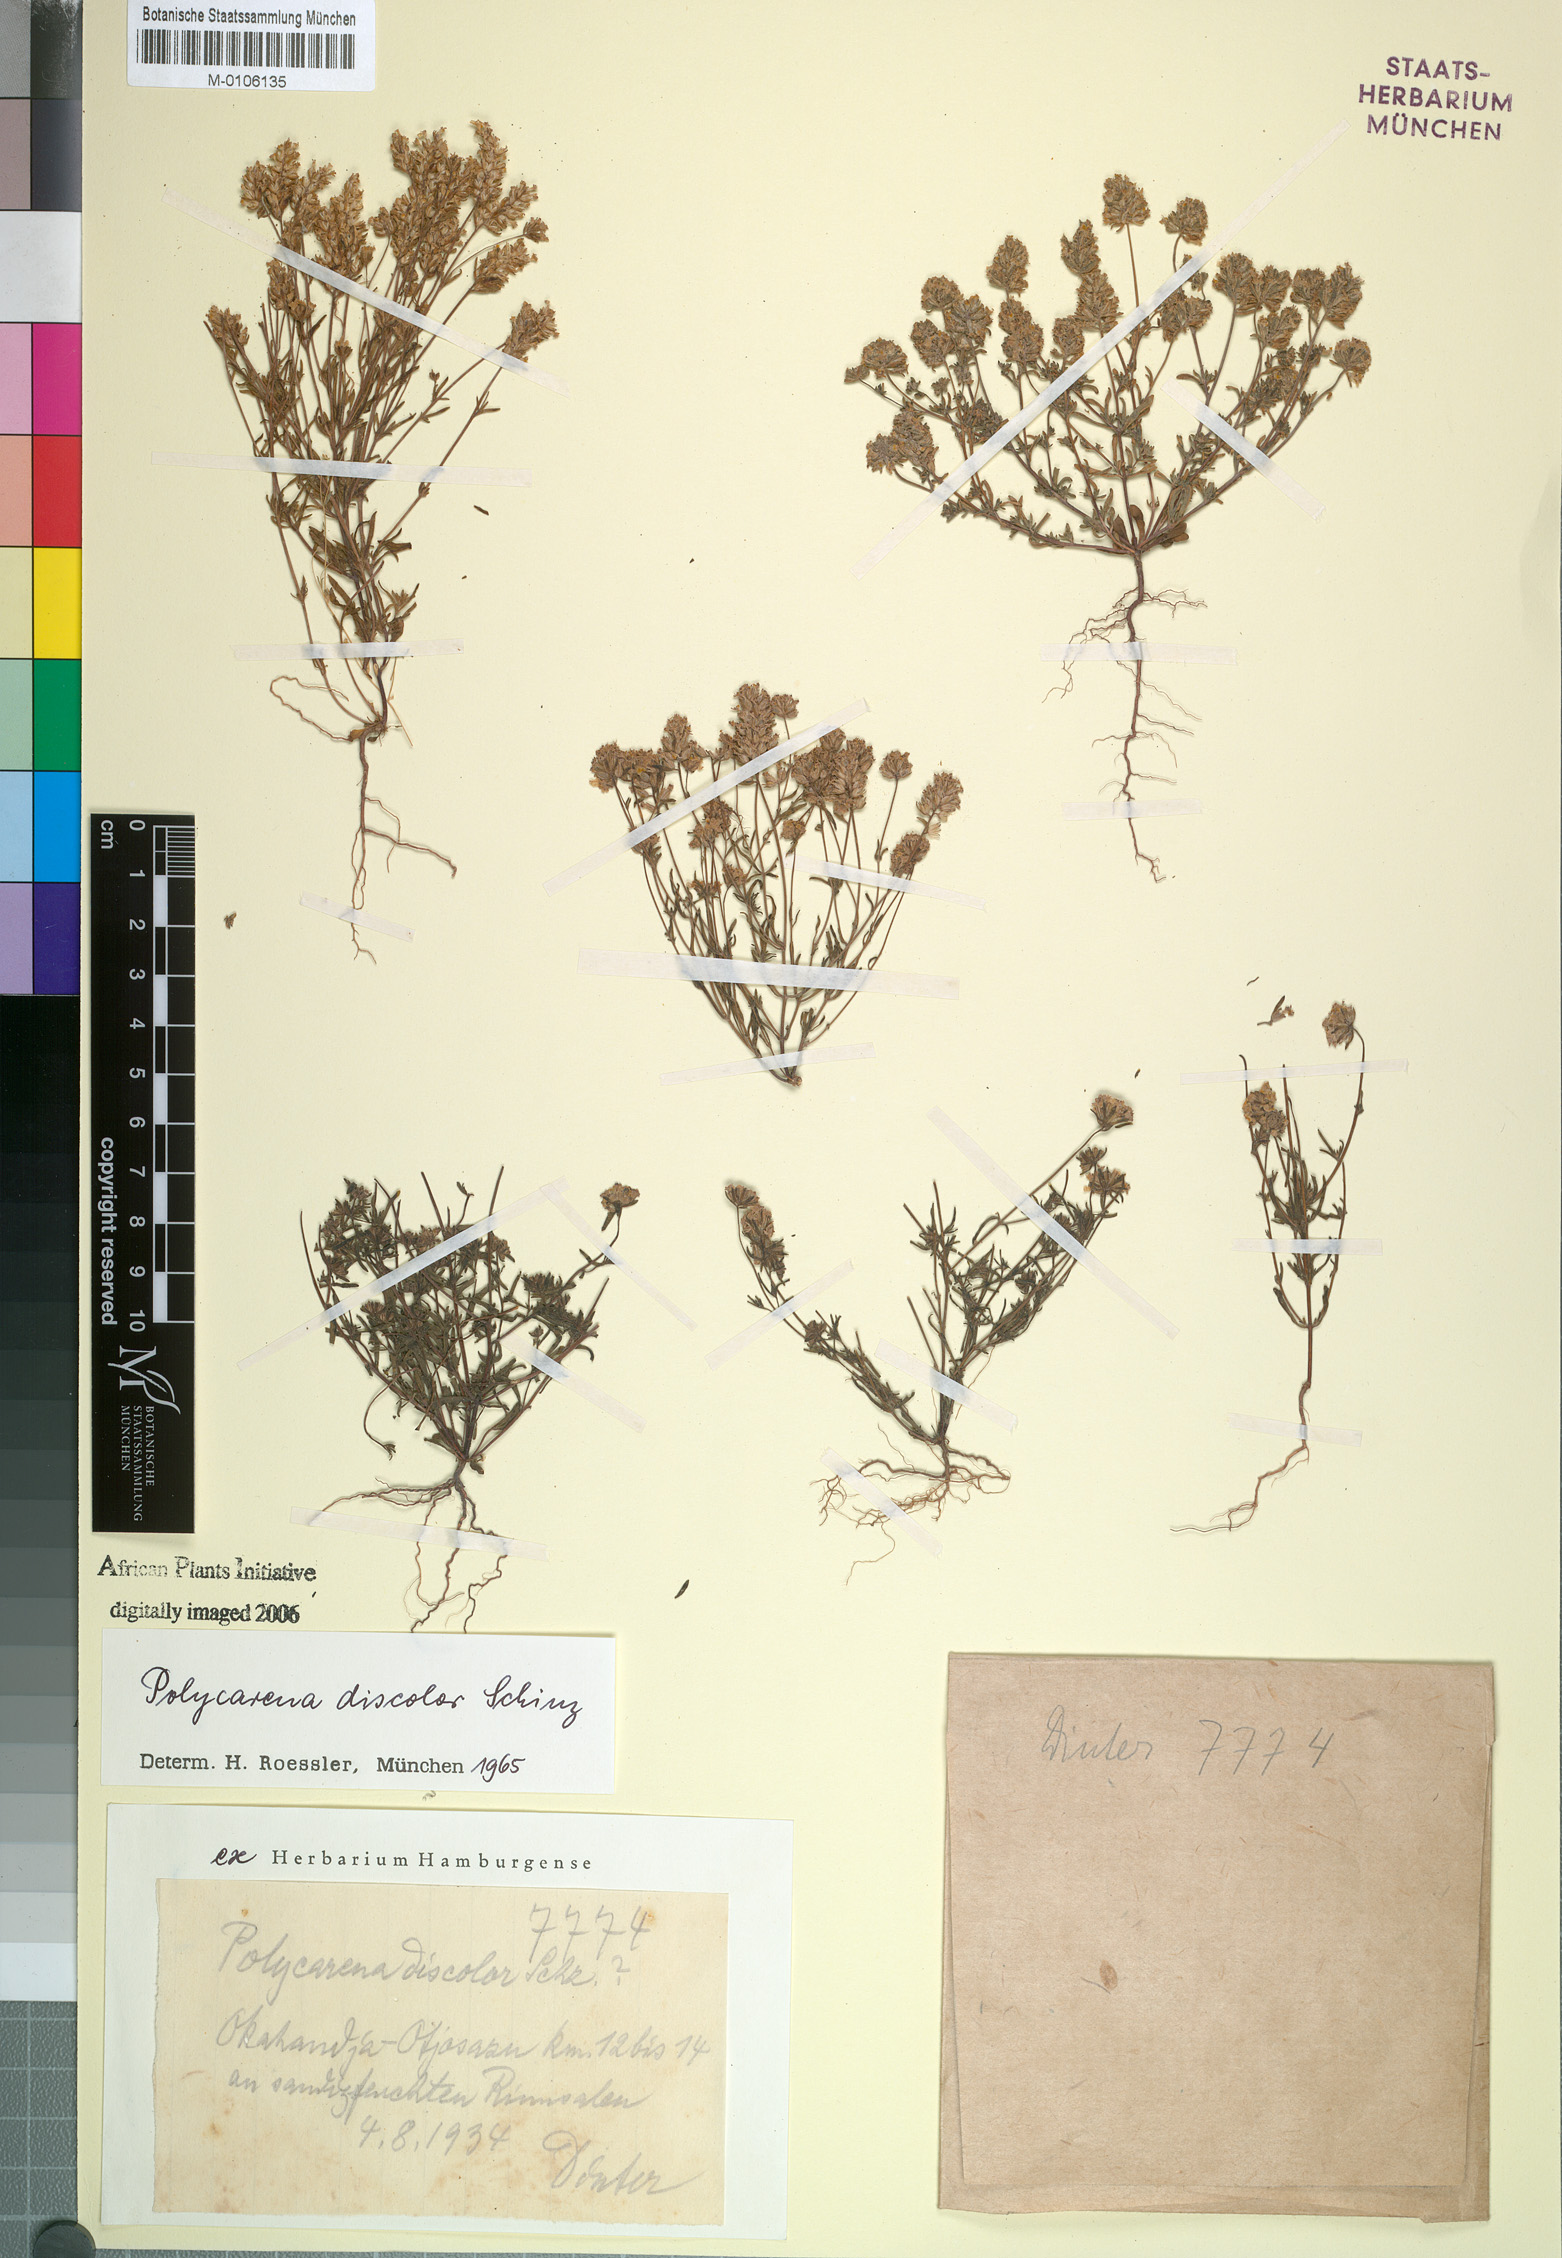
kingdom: Plantae
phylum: Tracheophyta
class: Magnoliopsida
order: Lamiales
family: Scrophulariaceae
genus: Melanospermum
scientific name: Melanospermum foliosum
